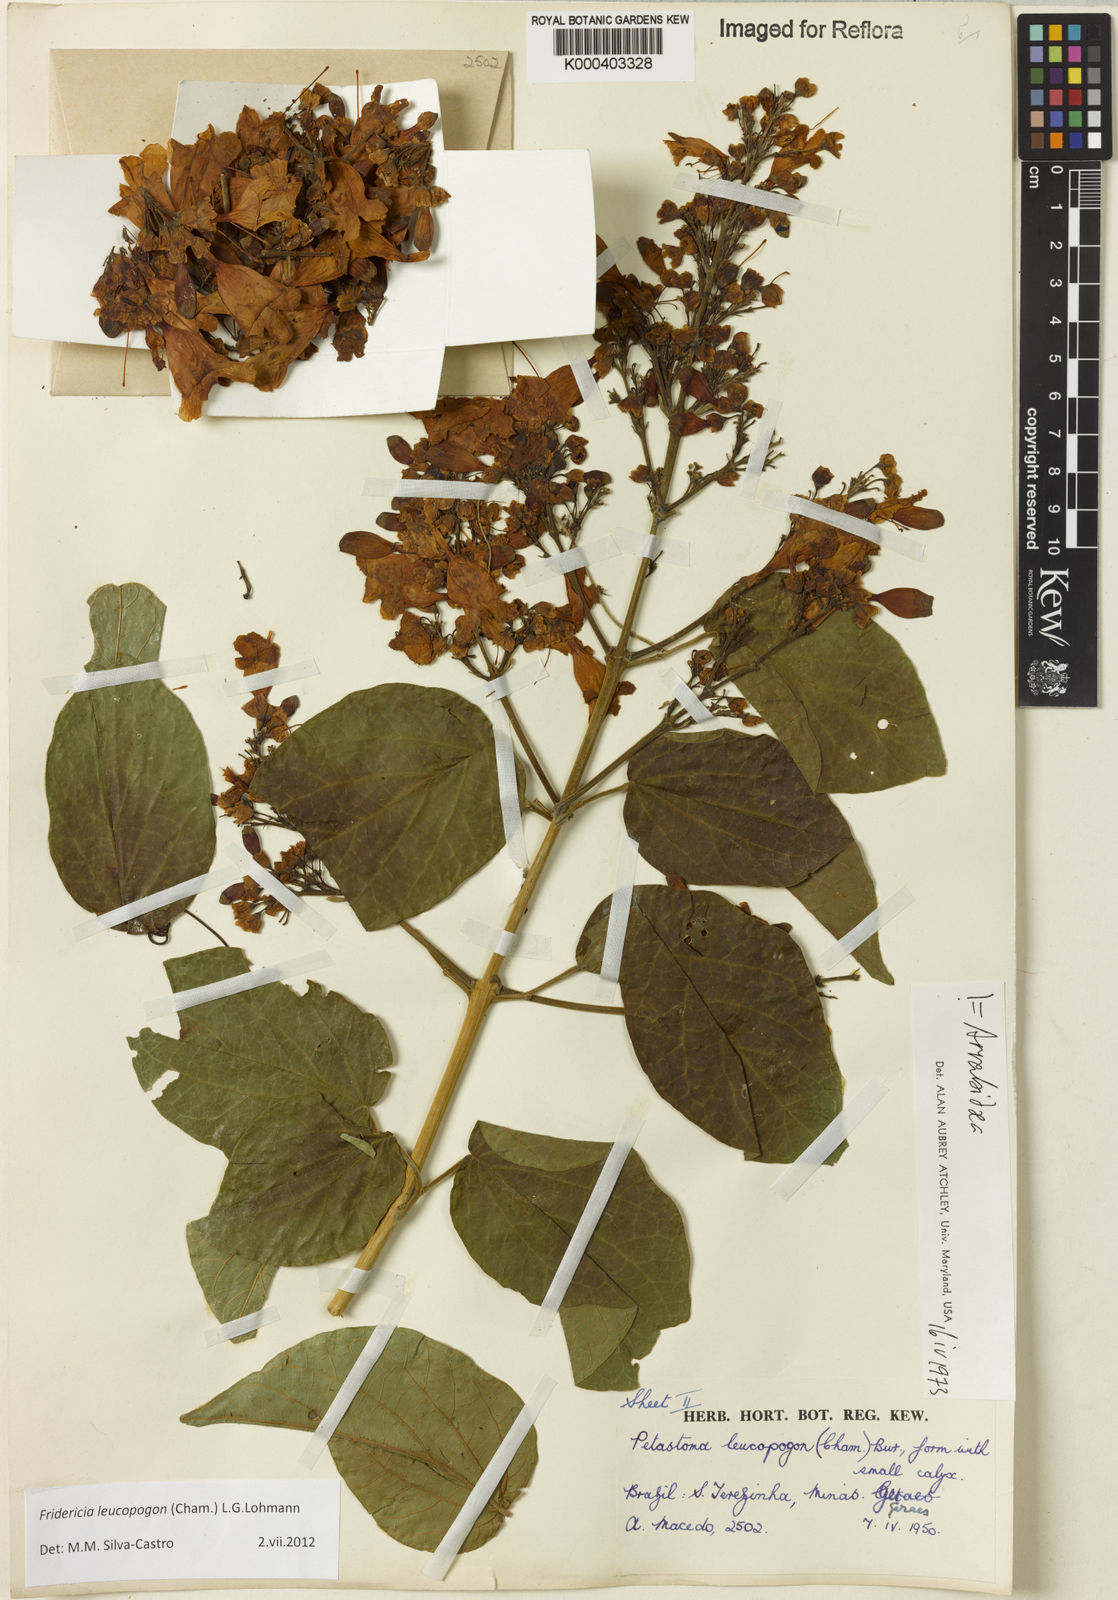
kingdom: Plantae
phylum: Tracheophyta
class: Magnoliopsida
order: Lamiales
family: Bignoniaceae
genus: Fridericia
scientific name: Fridericia leucopogon
